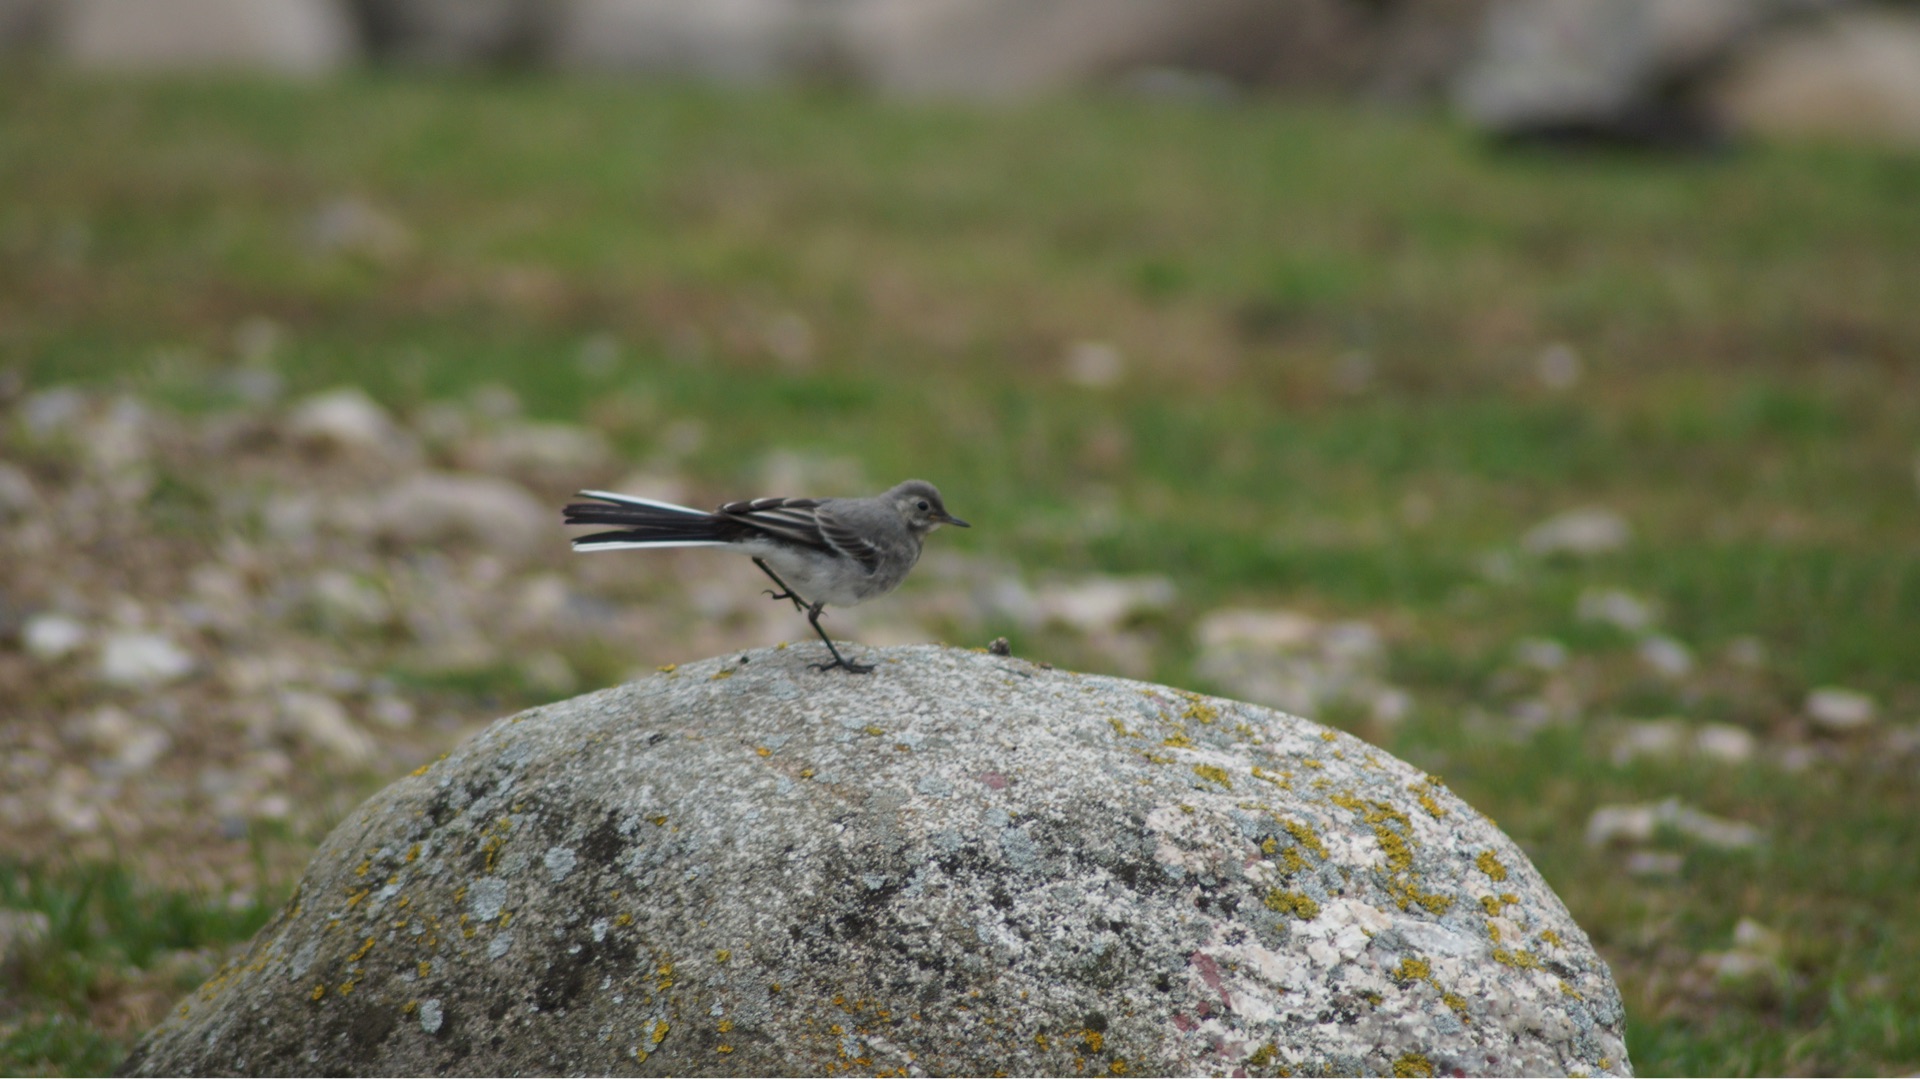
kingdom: Animalia
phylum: Chordata
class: Aves
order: Passeriformes
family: Motacillidae
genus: Motacilla
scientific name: Motacilla alba
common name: Hvid vipstjert
